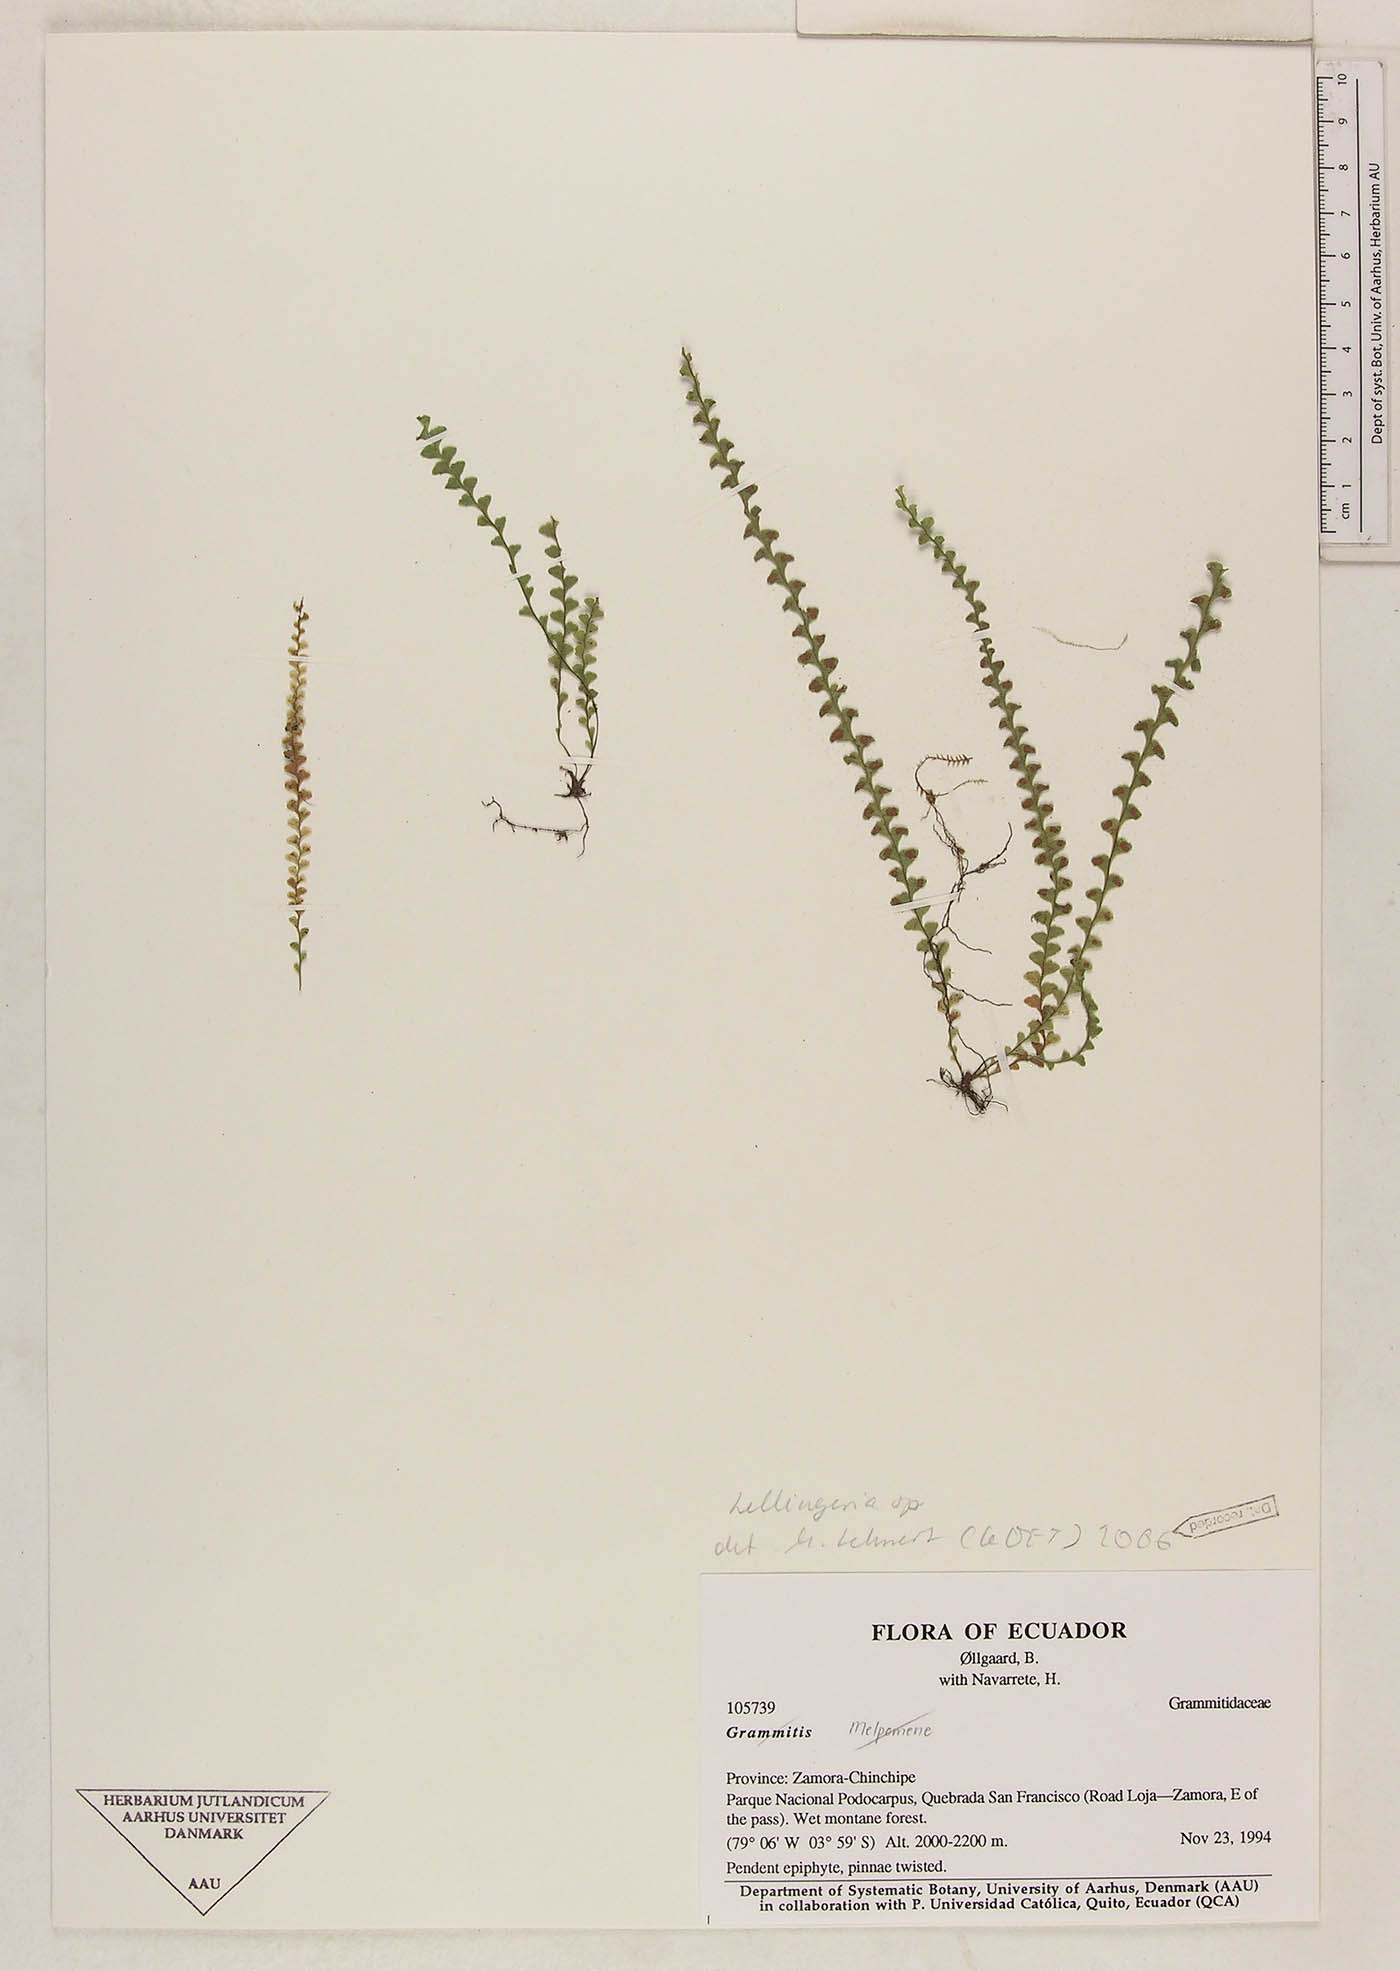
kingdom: Plantae
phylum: Tracheophyta
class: Polypodiopsida
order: Polypodiales
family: Polypodiaceae
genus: Lellingeria
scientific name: Lellingeria phlegmaria
